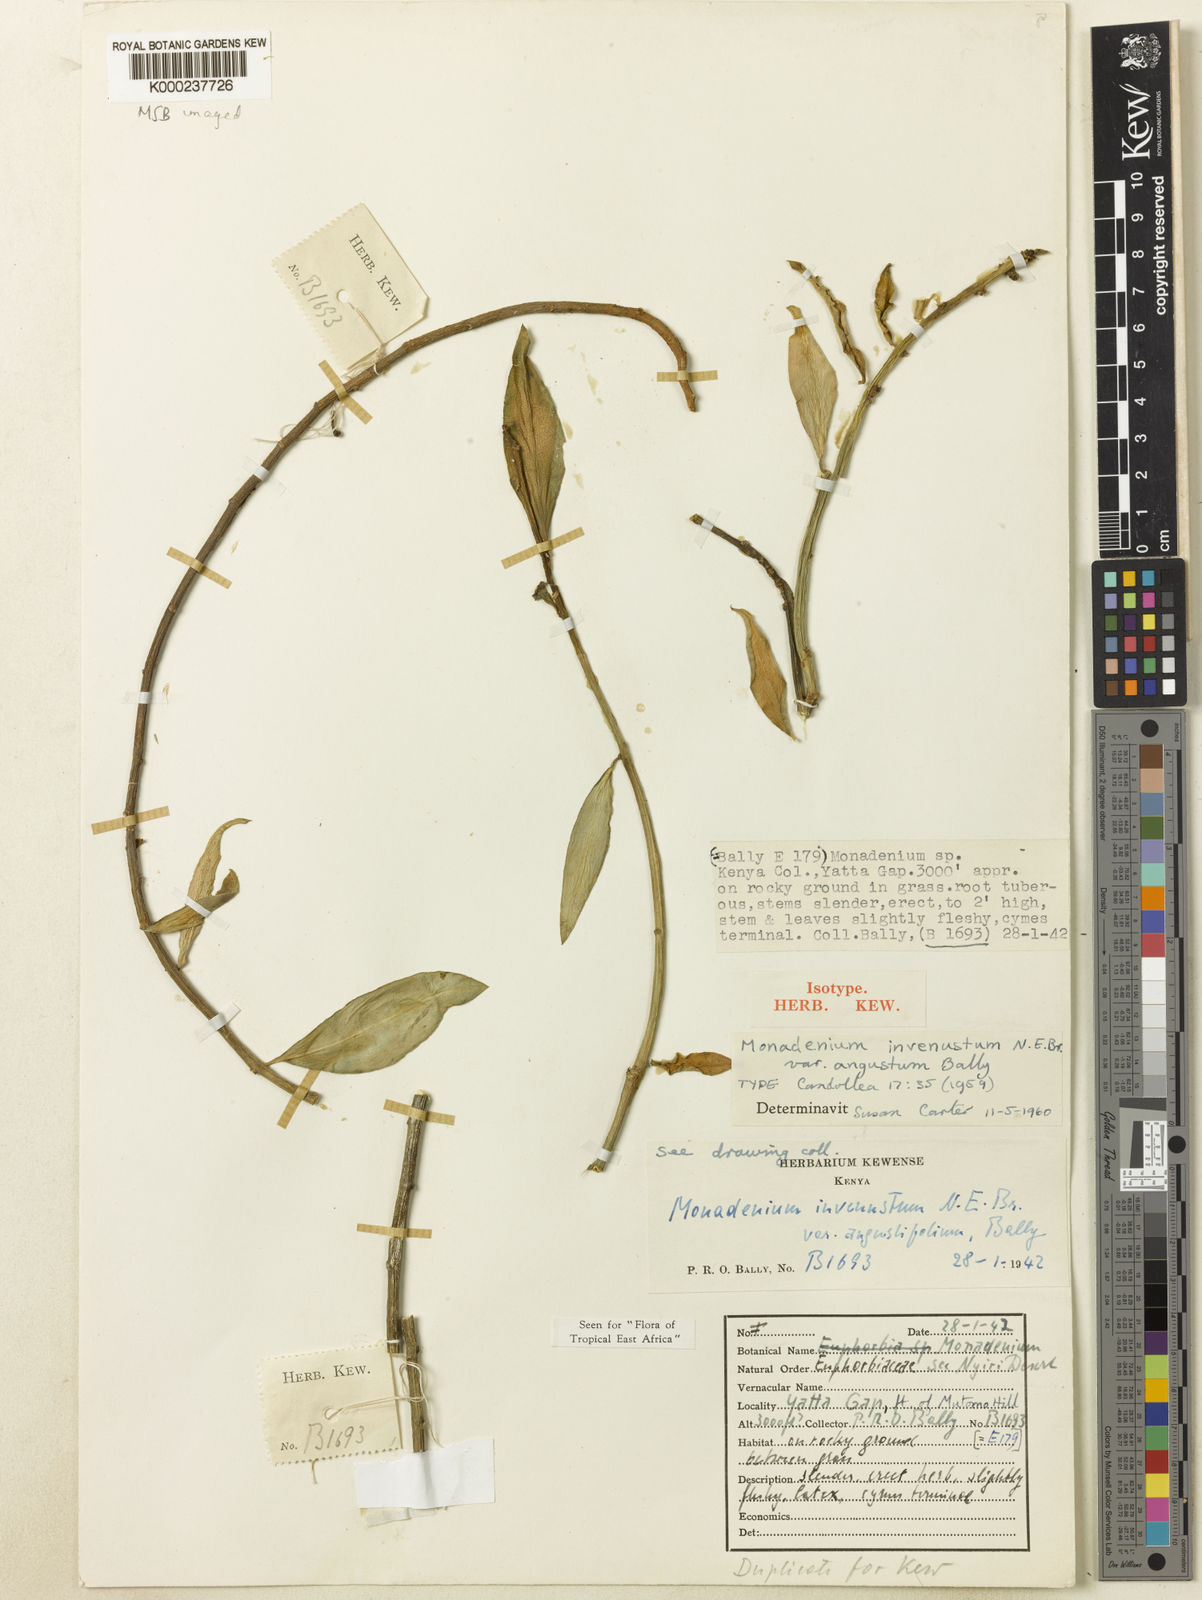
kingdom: Plantae
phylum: Tracheophyta
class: Magnoliopsida
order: Malpighiales
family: Euphorbiaceae
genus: Euphorbia
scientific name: Euphorbia invenusta
